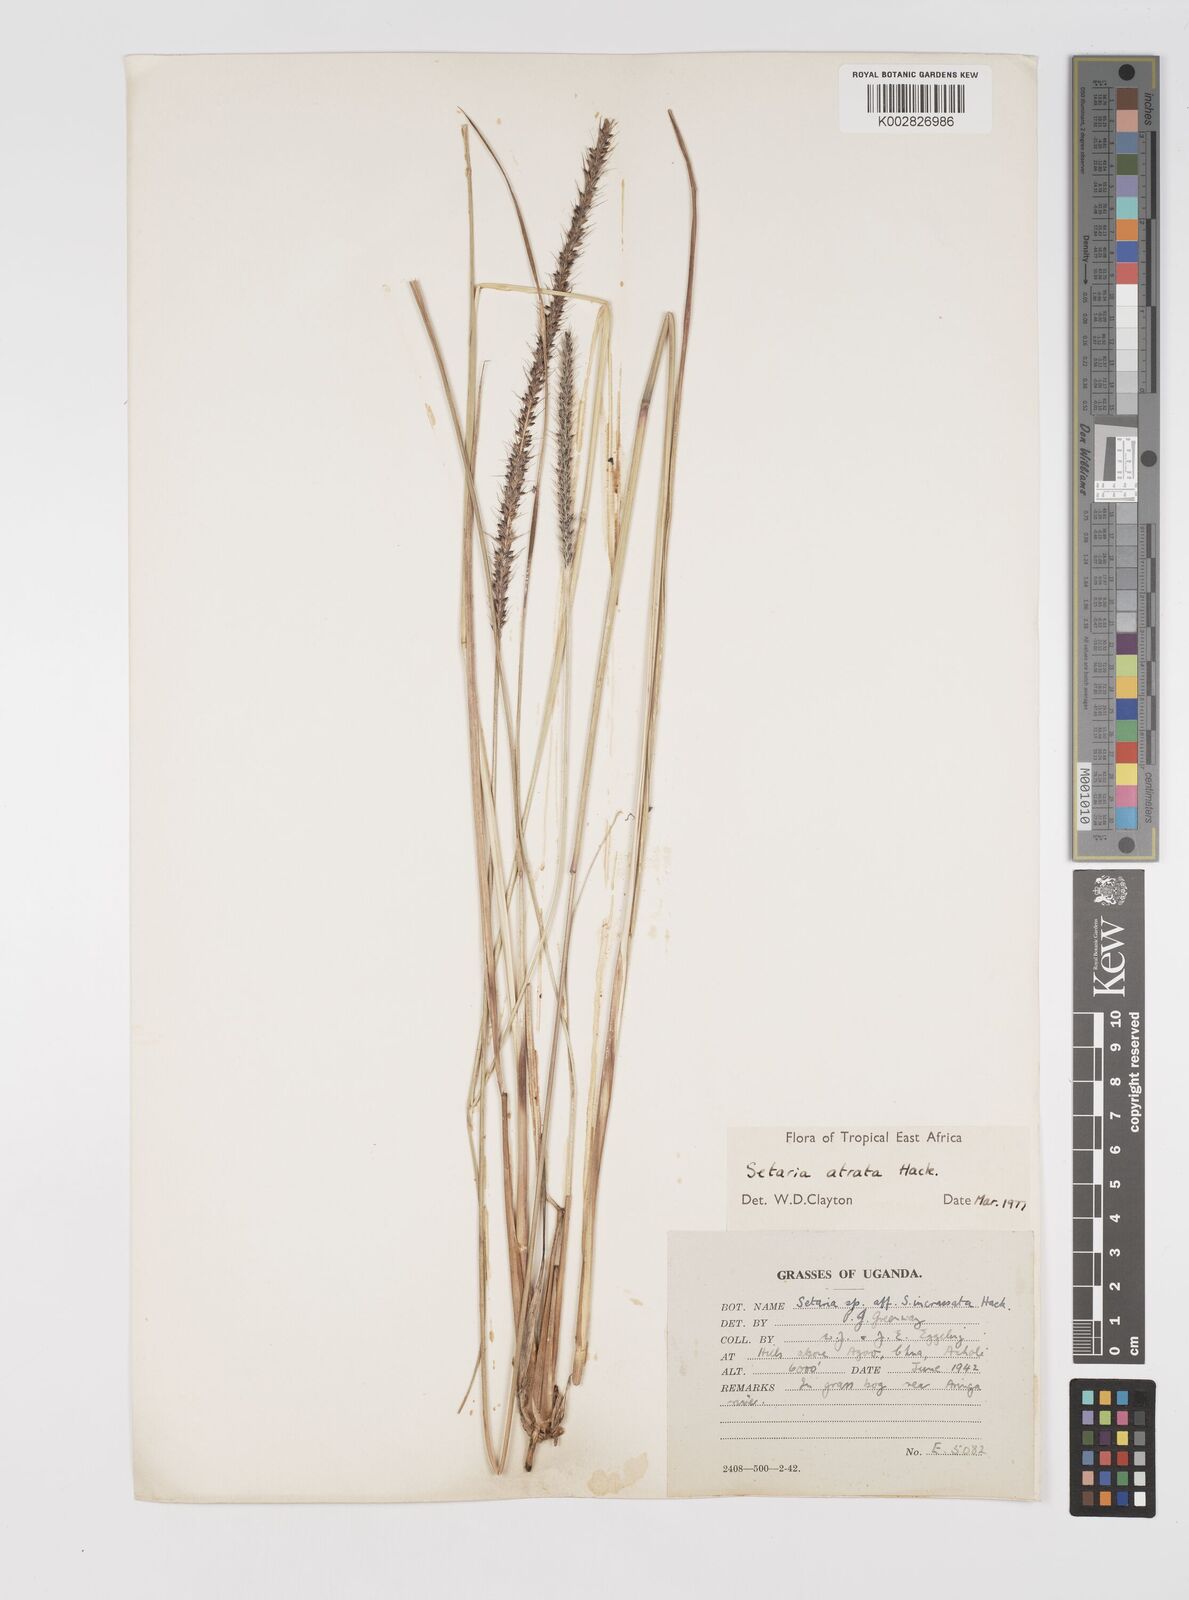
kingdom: Plantae
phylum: Tracheophyta
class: Liliopsida
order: Poales
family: Poaceae
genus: Setaria
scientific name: Setaria atrata
